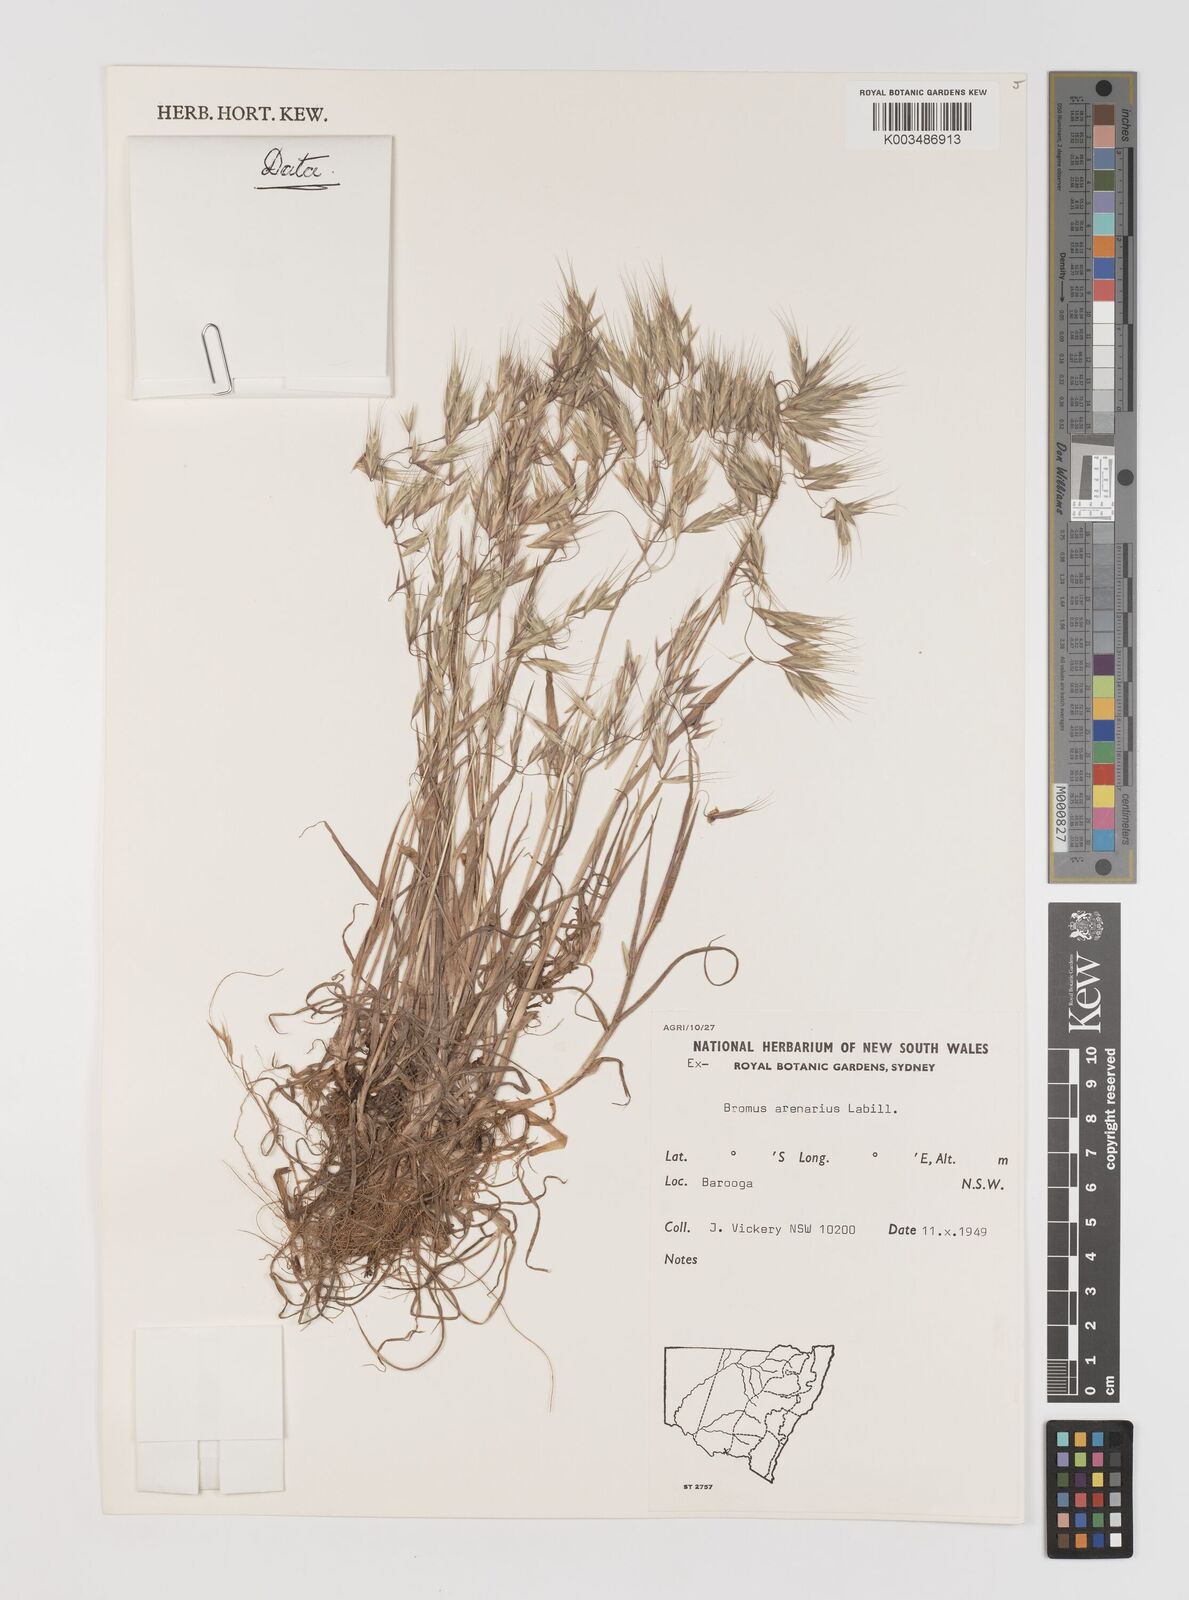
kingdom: Plantae
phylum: Tracheophyta
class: Liliopsida
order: Poales
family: Poaceae
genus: Bromus
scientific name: Bromus arenarius
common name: Australian brome
